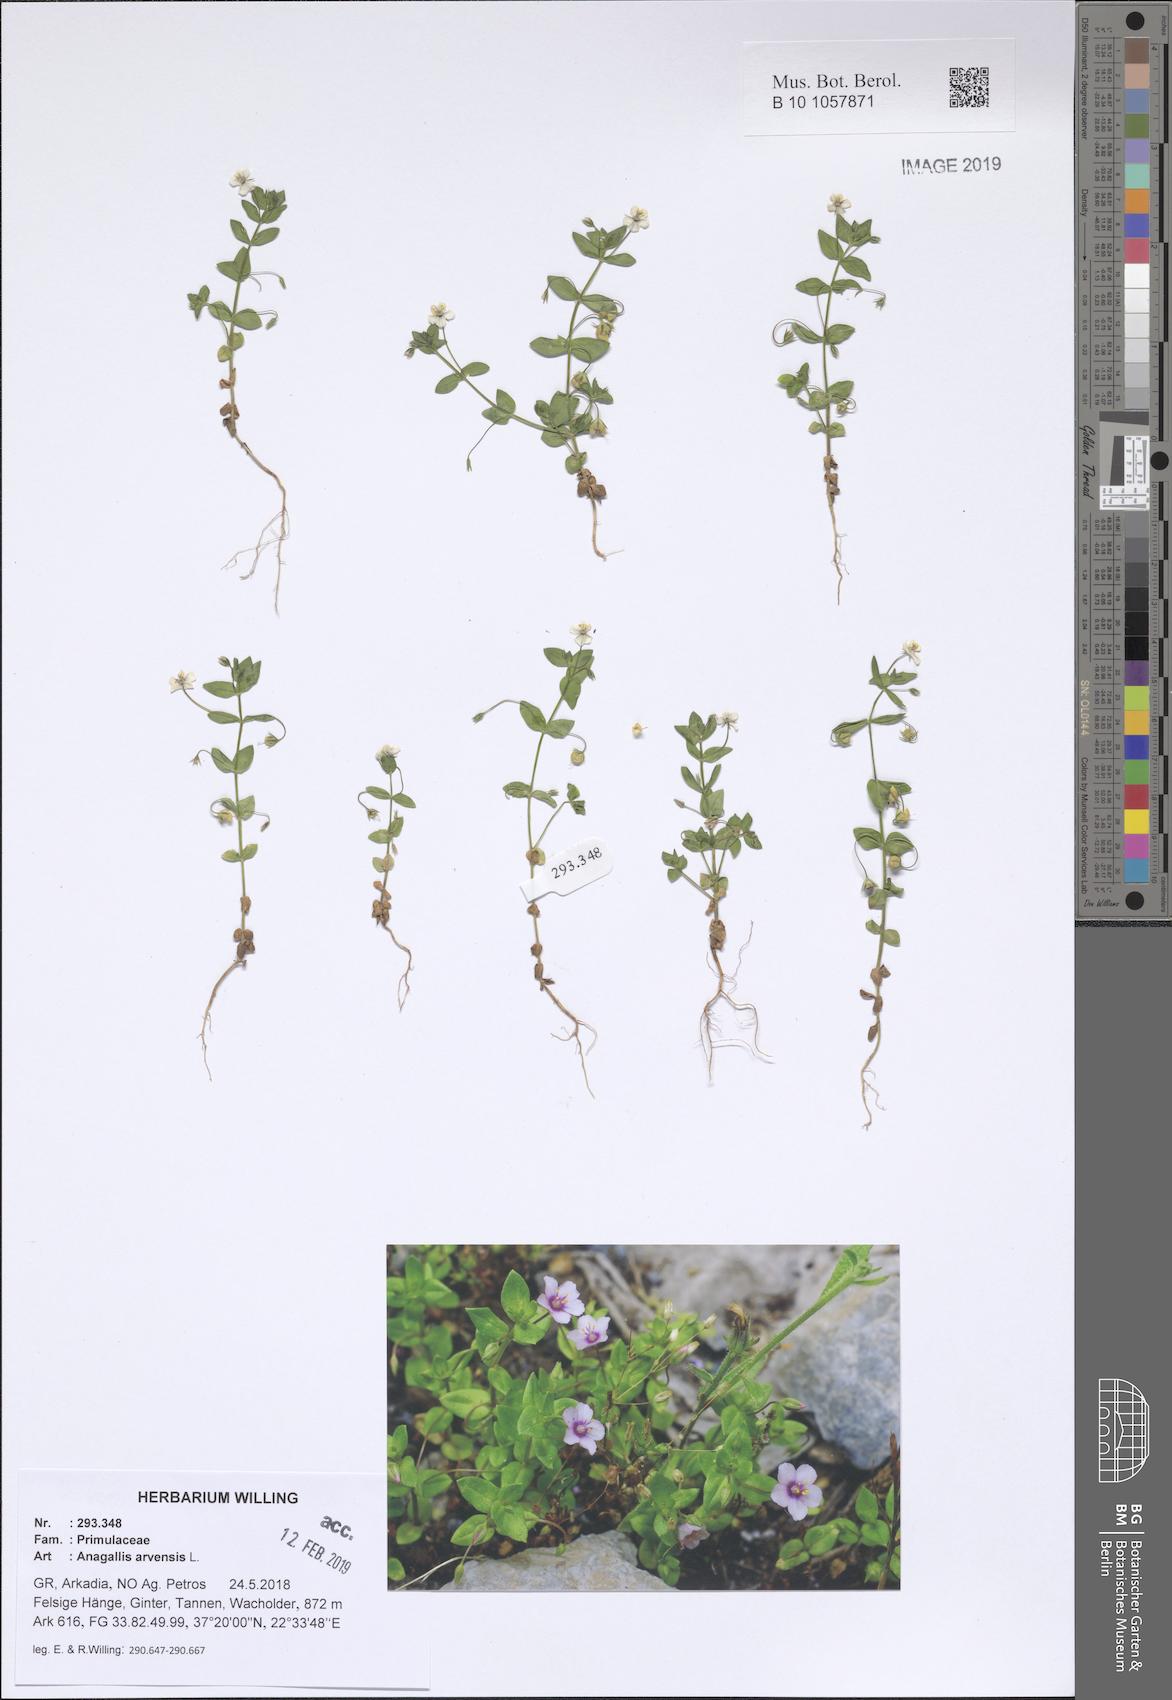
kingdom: Plantae
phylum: Tracheophyta
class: Magnoliopsida
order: Ericales
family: Primulaceae
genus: Lysimachia
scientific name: Lysimachia arvensis
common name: Scarlet pimpernel
